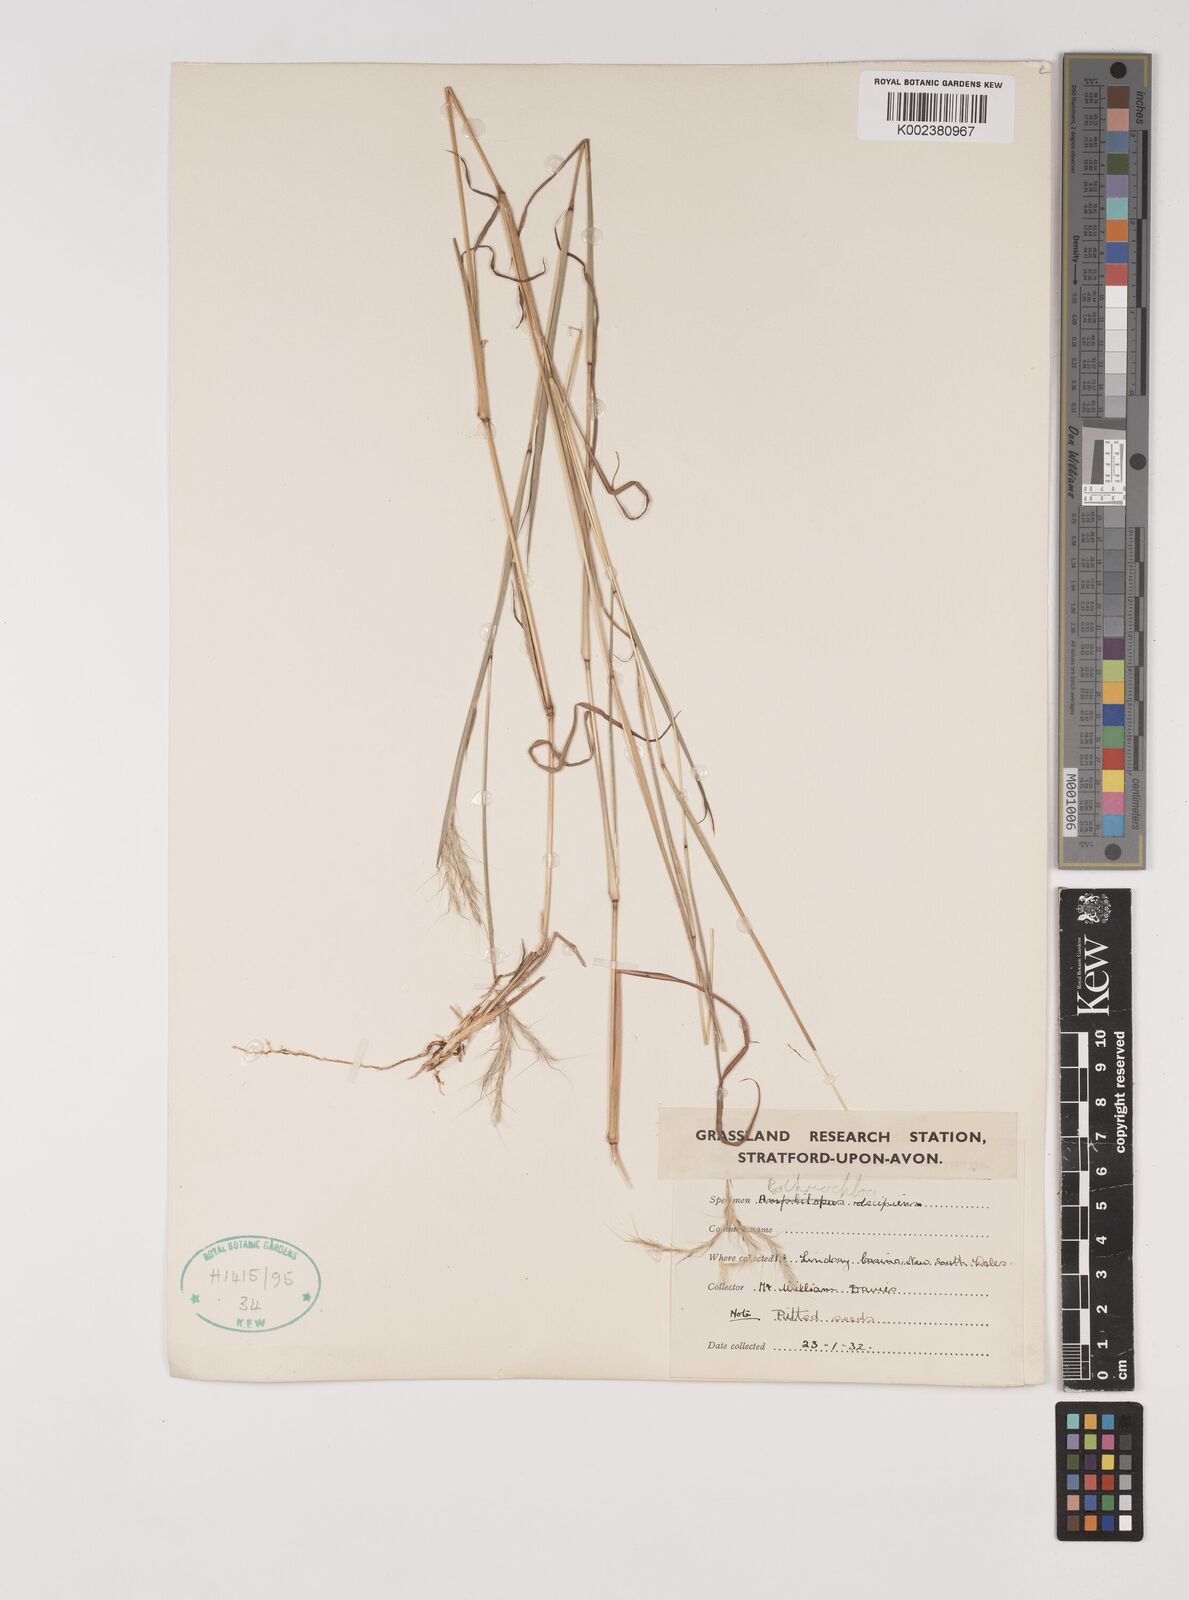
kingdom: Plantae
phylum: Tracheophyta
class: Liliopsida
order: Poales
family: Poaceae
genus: Bothriochloa
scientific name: Bothriochloa decipiens
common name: Pitted-bluegrass
